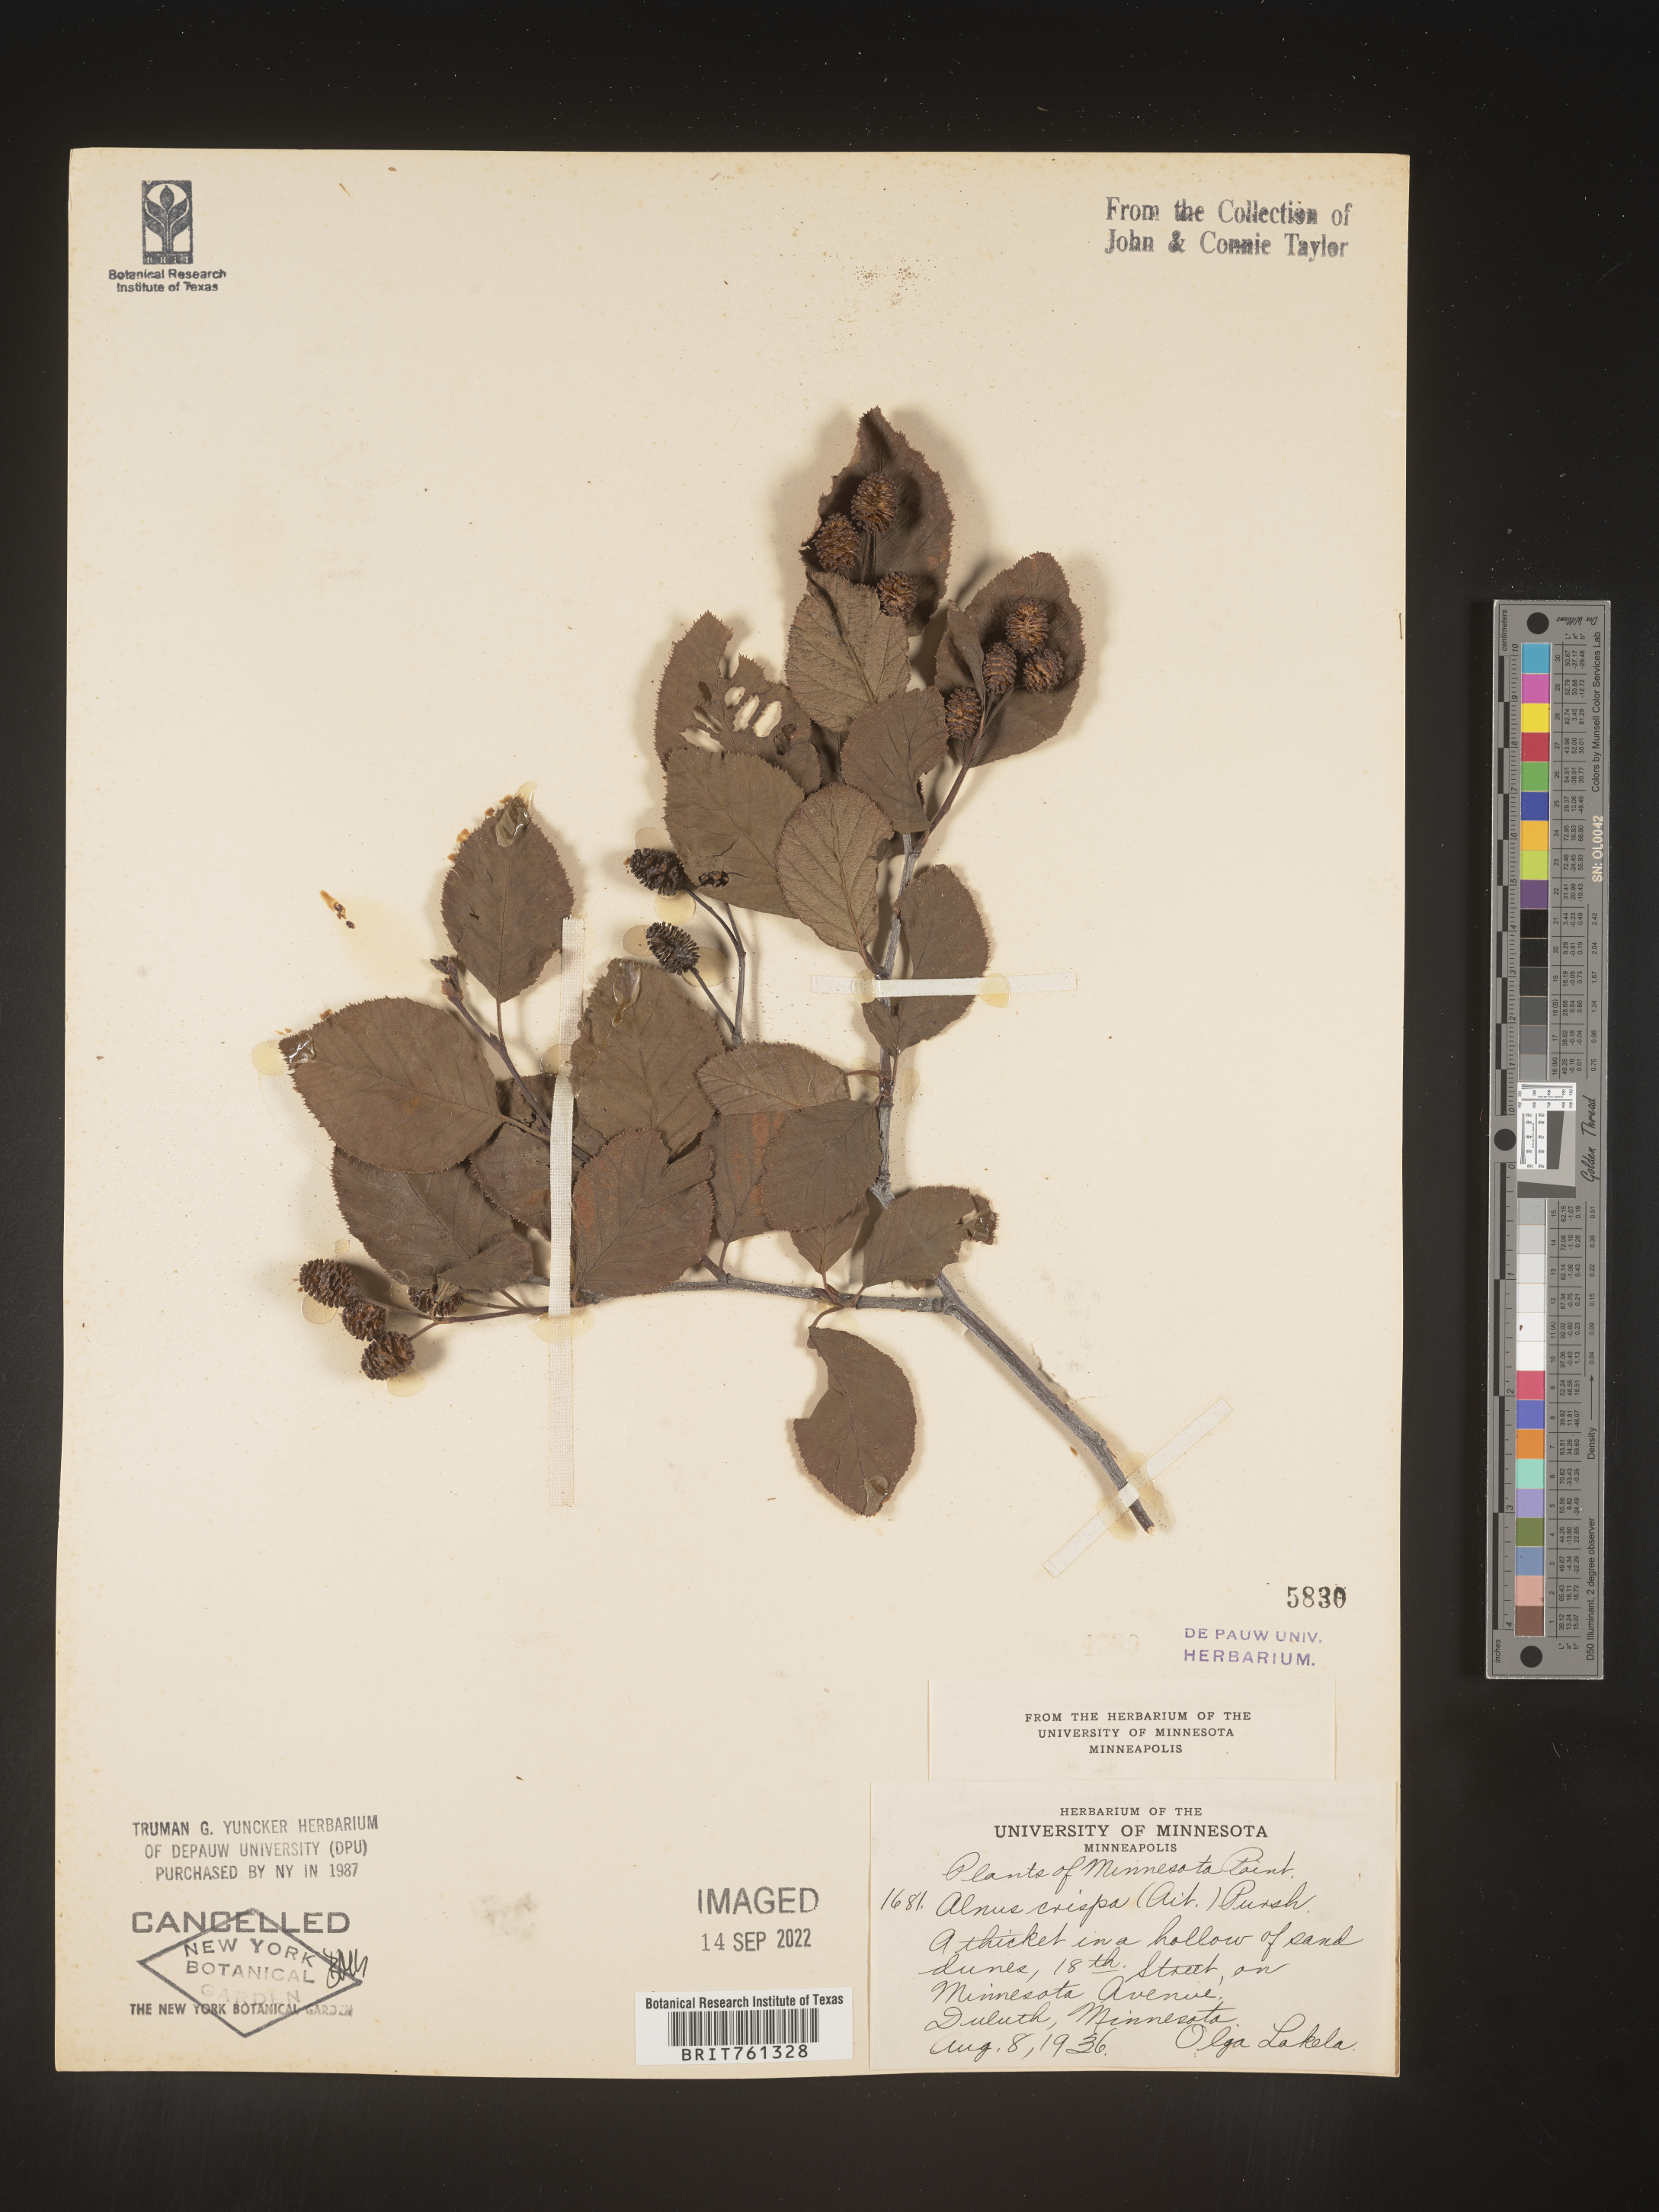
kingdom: Plantae
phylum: Tracheophyta
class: Magnoliopsida
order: Fagales
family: Betulaceae
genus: Alnus
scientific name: Alnus
